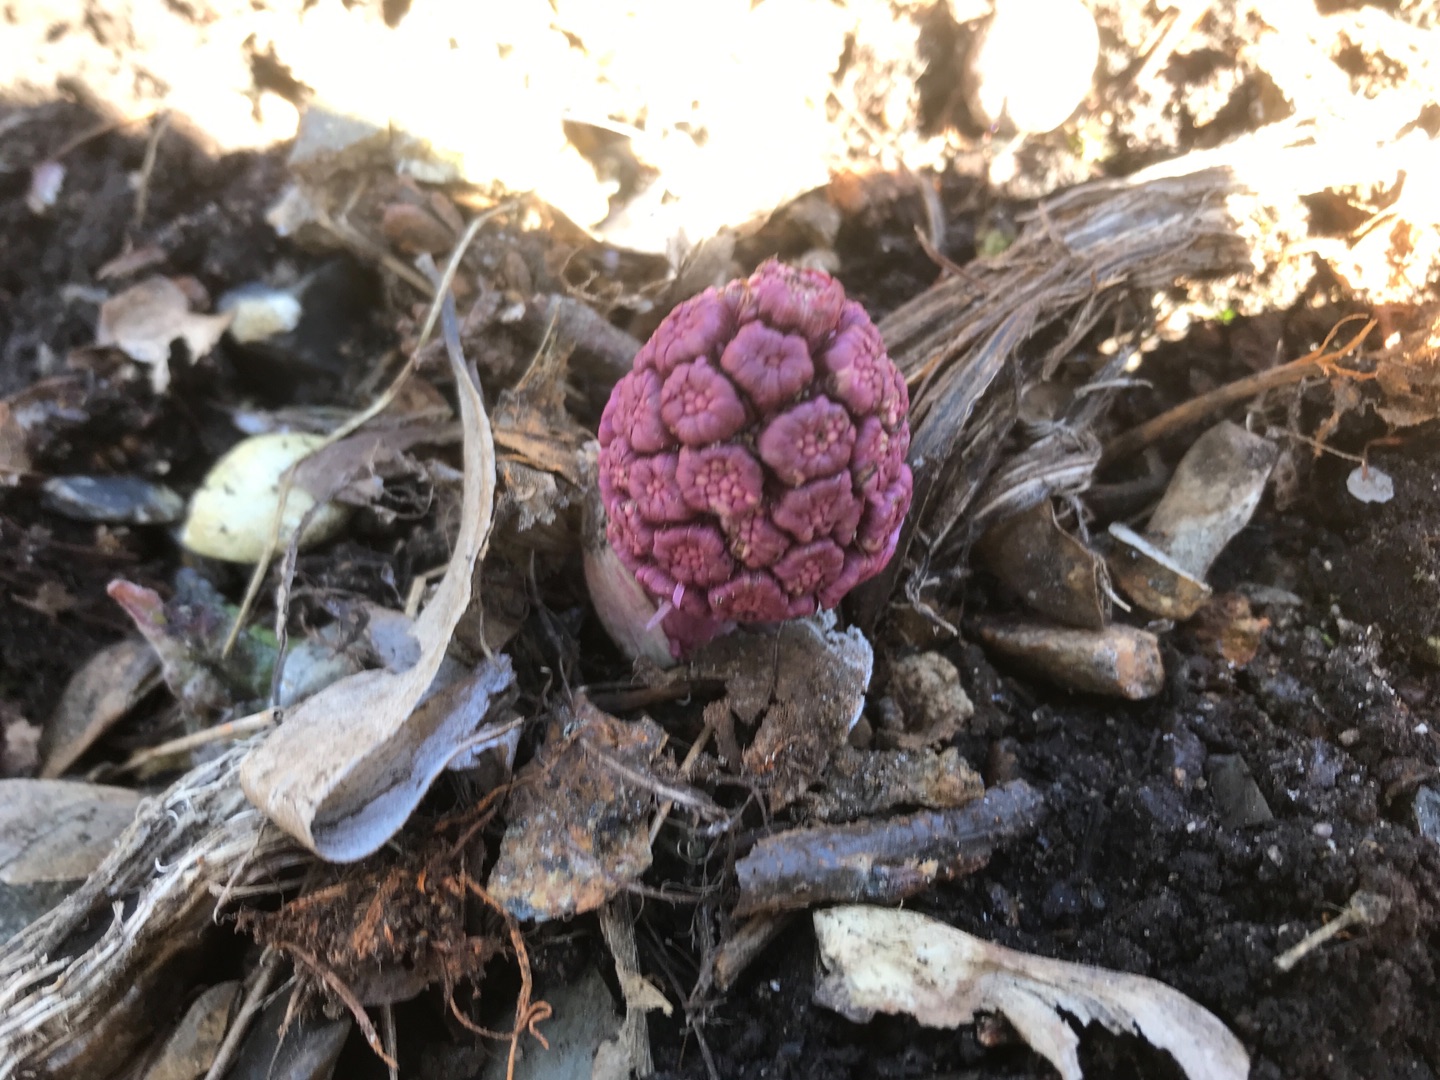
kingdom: Plantae
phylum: Tracheophyta
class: Magnoliopsida
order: Asterales
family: Asteraceae
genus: Petasites
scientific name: Petasites hybridus
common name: Rød hestehov
